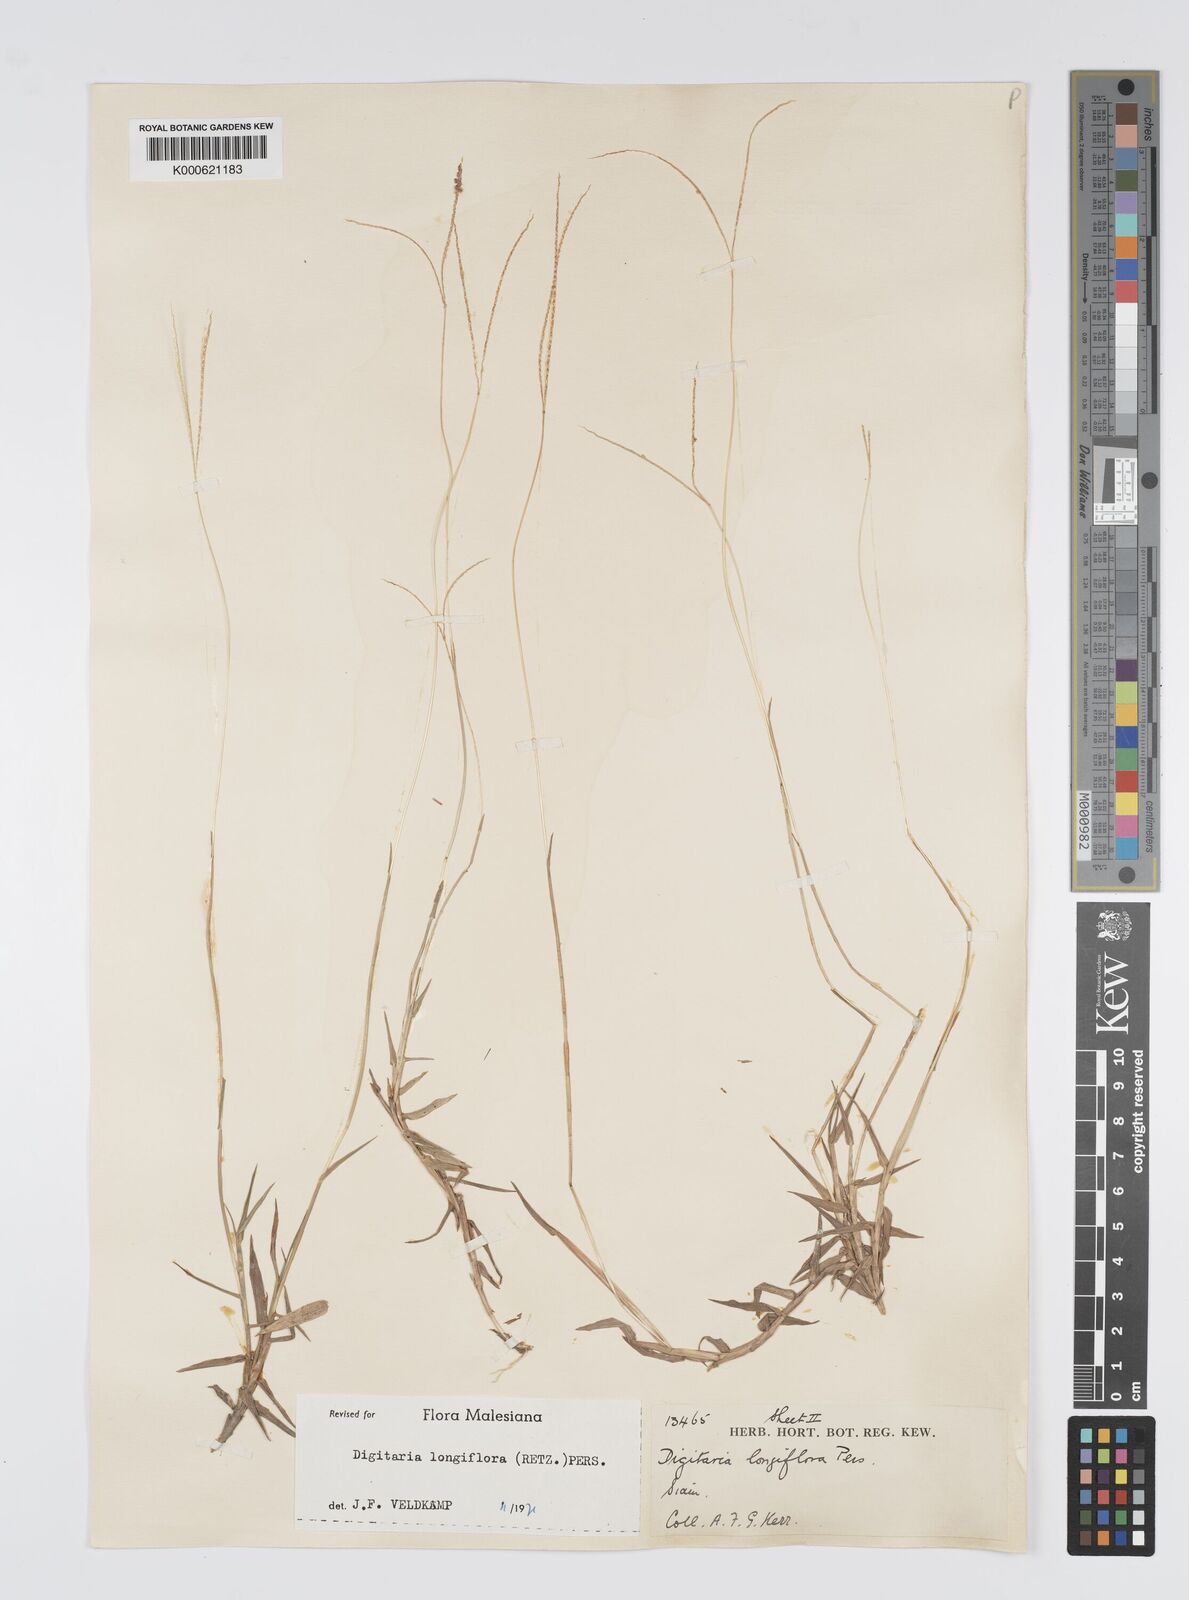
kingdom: Plantae
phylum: Tracheophyta
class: Liliopsida
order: Poales
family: Poaceae
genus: Digitaria
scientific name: Digitaria longiflora
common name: Wire crabgrass
